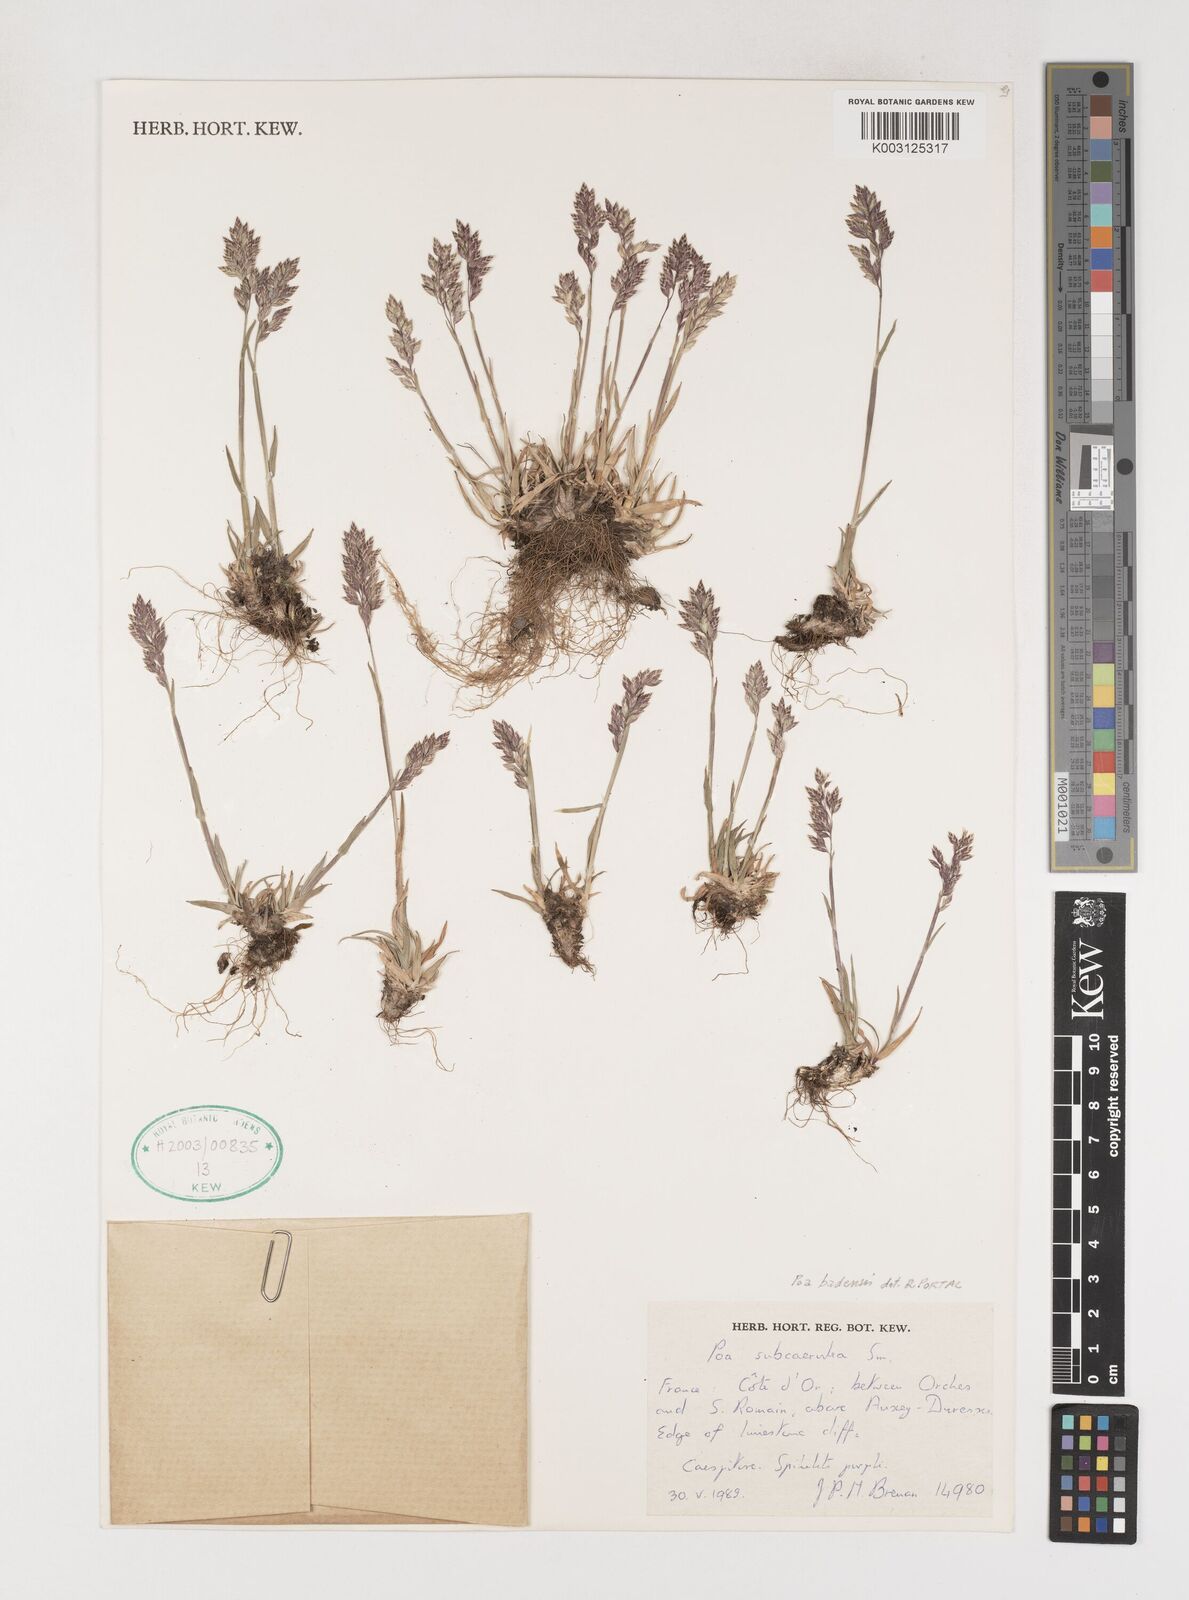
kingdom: Plantae
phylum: Tracheophyta
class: Liliopsida
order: Poales
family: Poaceae
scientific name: Poaceae
